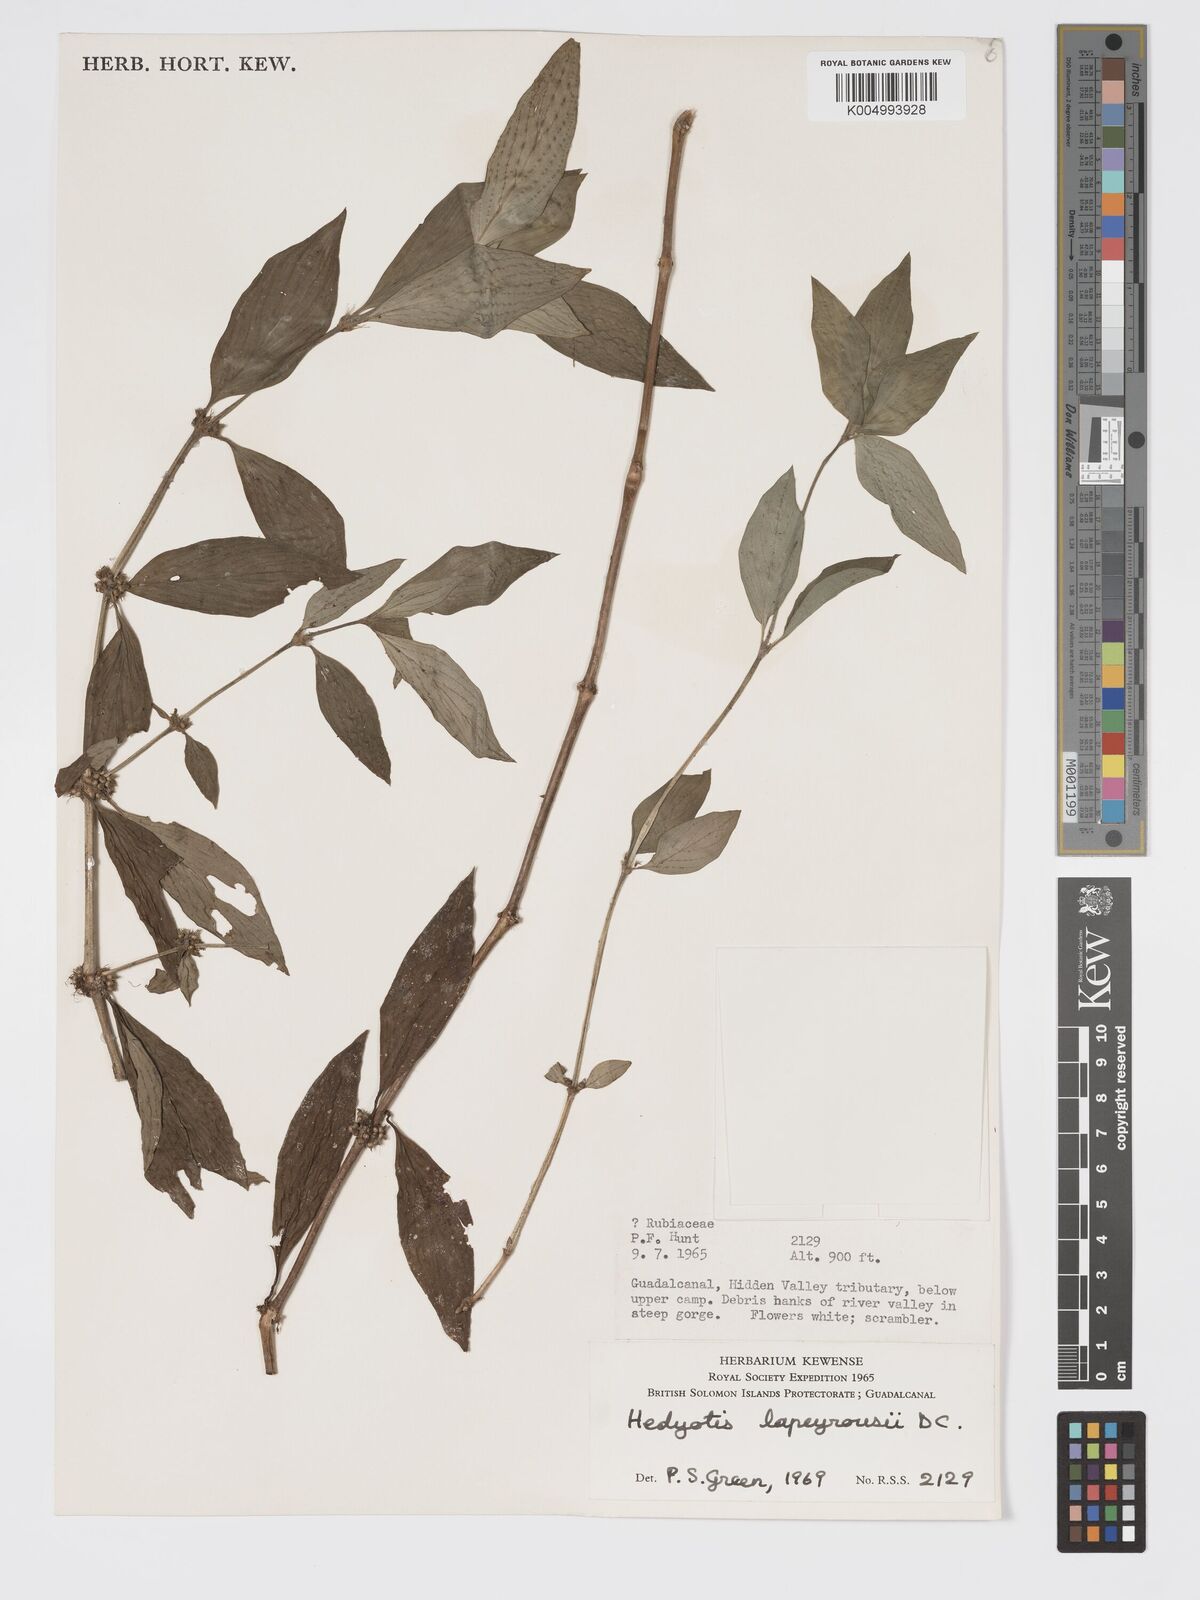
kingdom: Plantae
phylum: Tracheophyta
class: Magnoliopsida
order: Gentianales
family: Rubiaceae
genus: Exallage
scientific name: Exallage lapeyrousei
